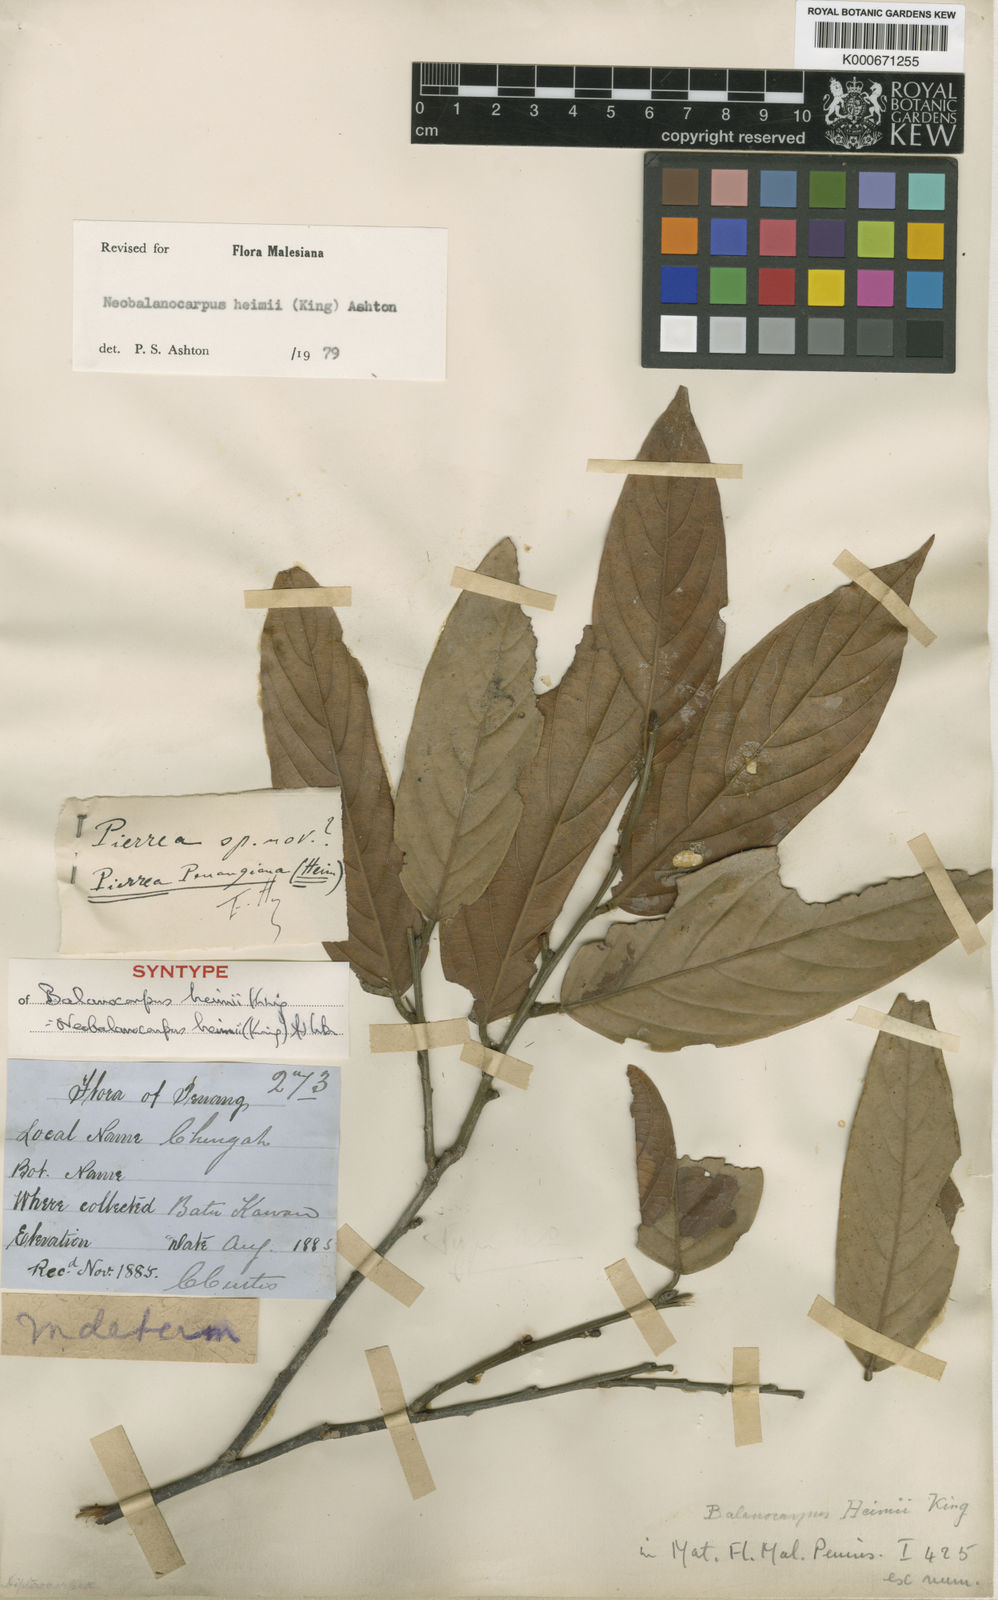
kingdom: Plantae
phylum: Tracheophyta
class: Magnoliopsida
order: Malvales
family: Dipterocarpaceae
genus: Neobalanocarpus
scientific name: Neobalanocarpus
